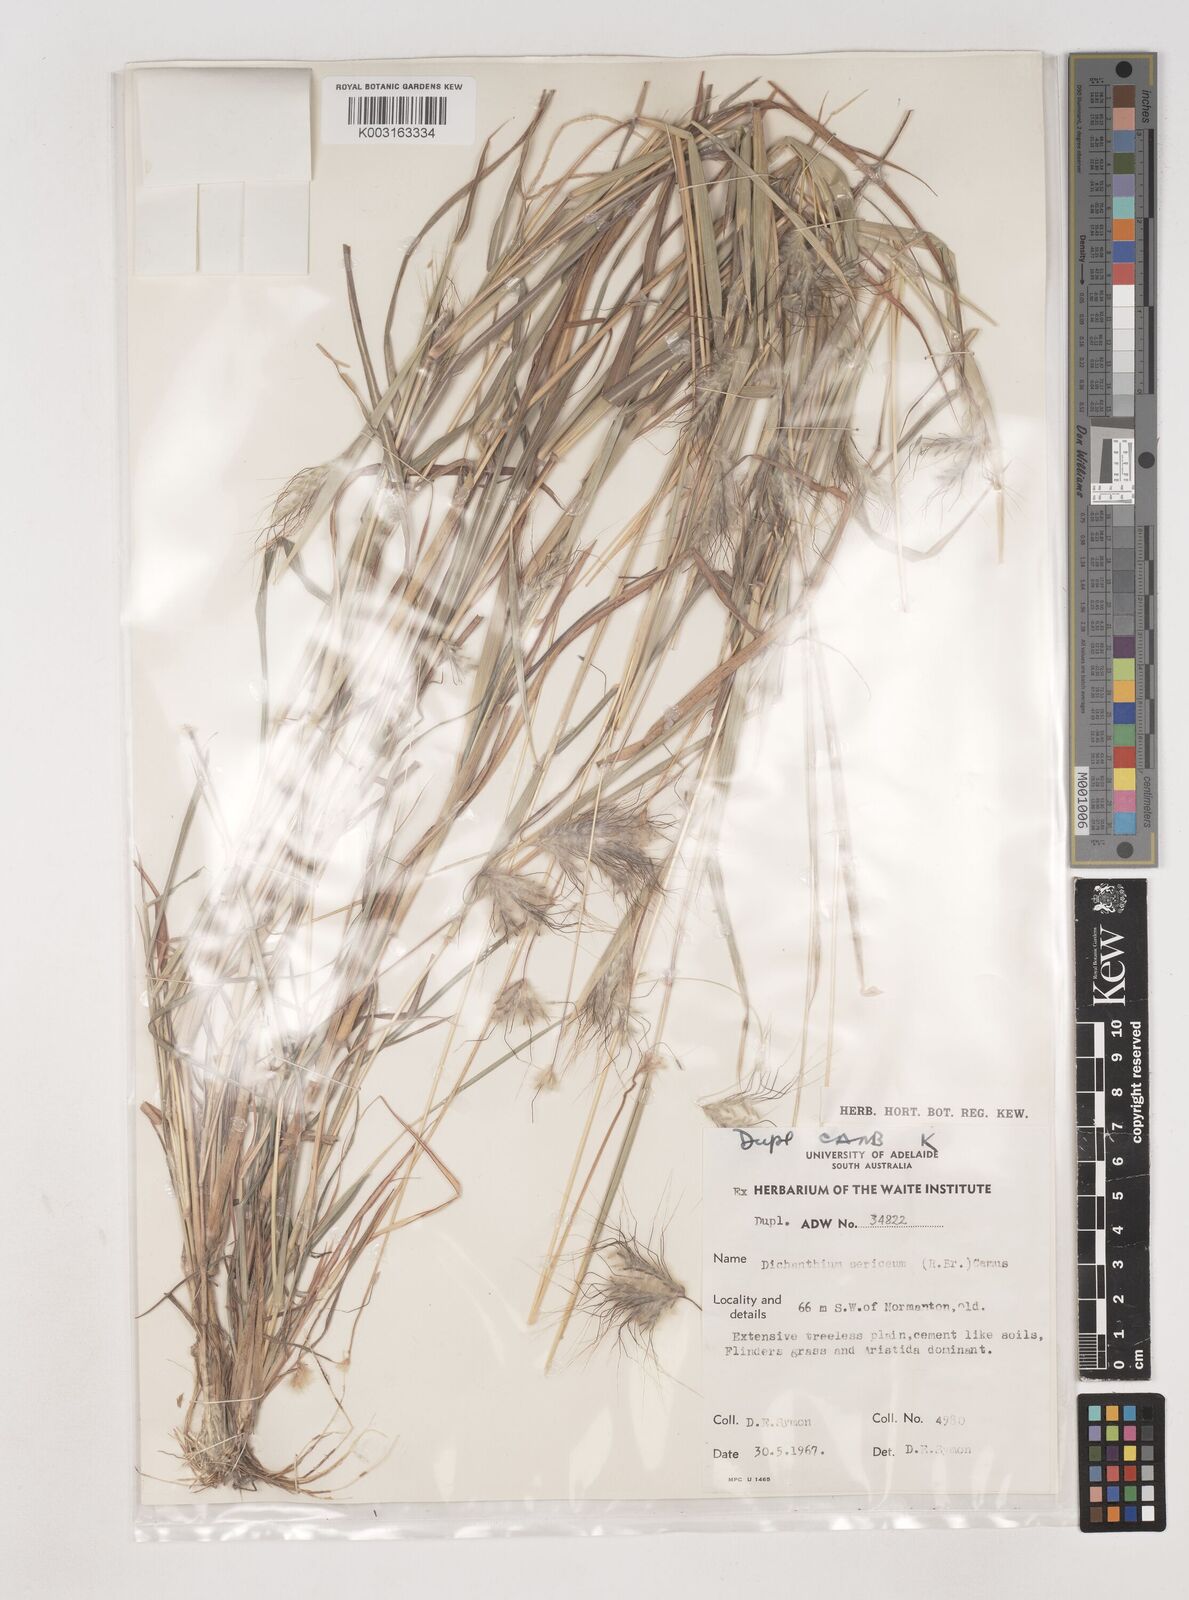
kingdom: Plantae
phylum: Tracheophyta
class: Liliopsida
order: Poales
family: Poaceae
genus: Dichanthium
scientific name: Dichanthium sericeum
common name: Silky bluestem
